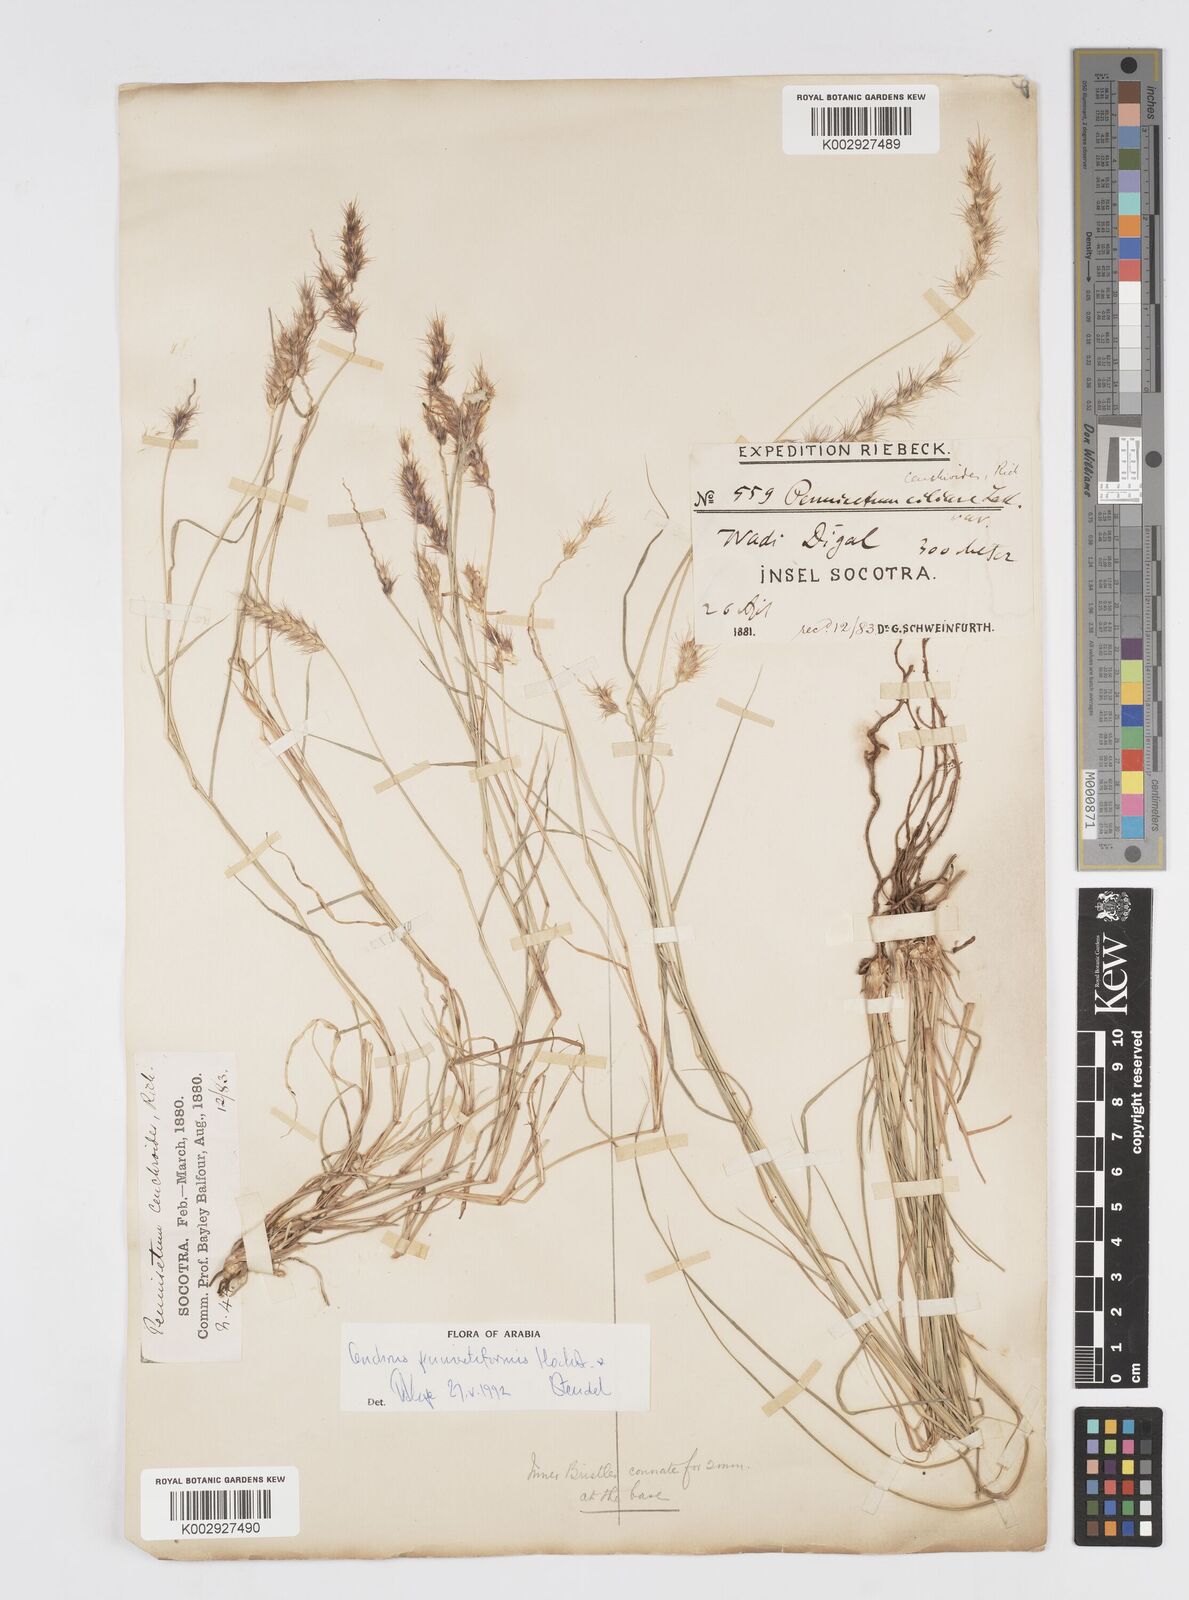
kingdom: Plantae
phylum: Tracheophyta
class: Liliopsida
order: Poales
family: Poaceae
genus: Cenchrus
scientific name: Cenchrus pennisetiformis
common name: Cloncurry
